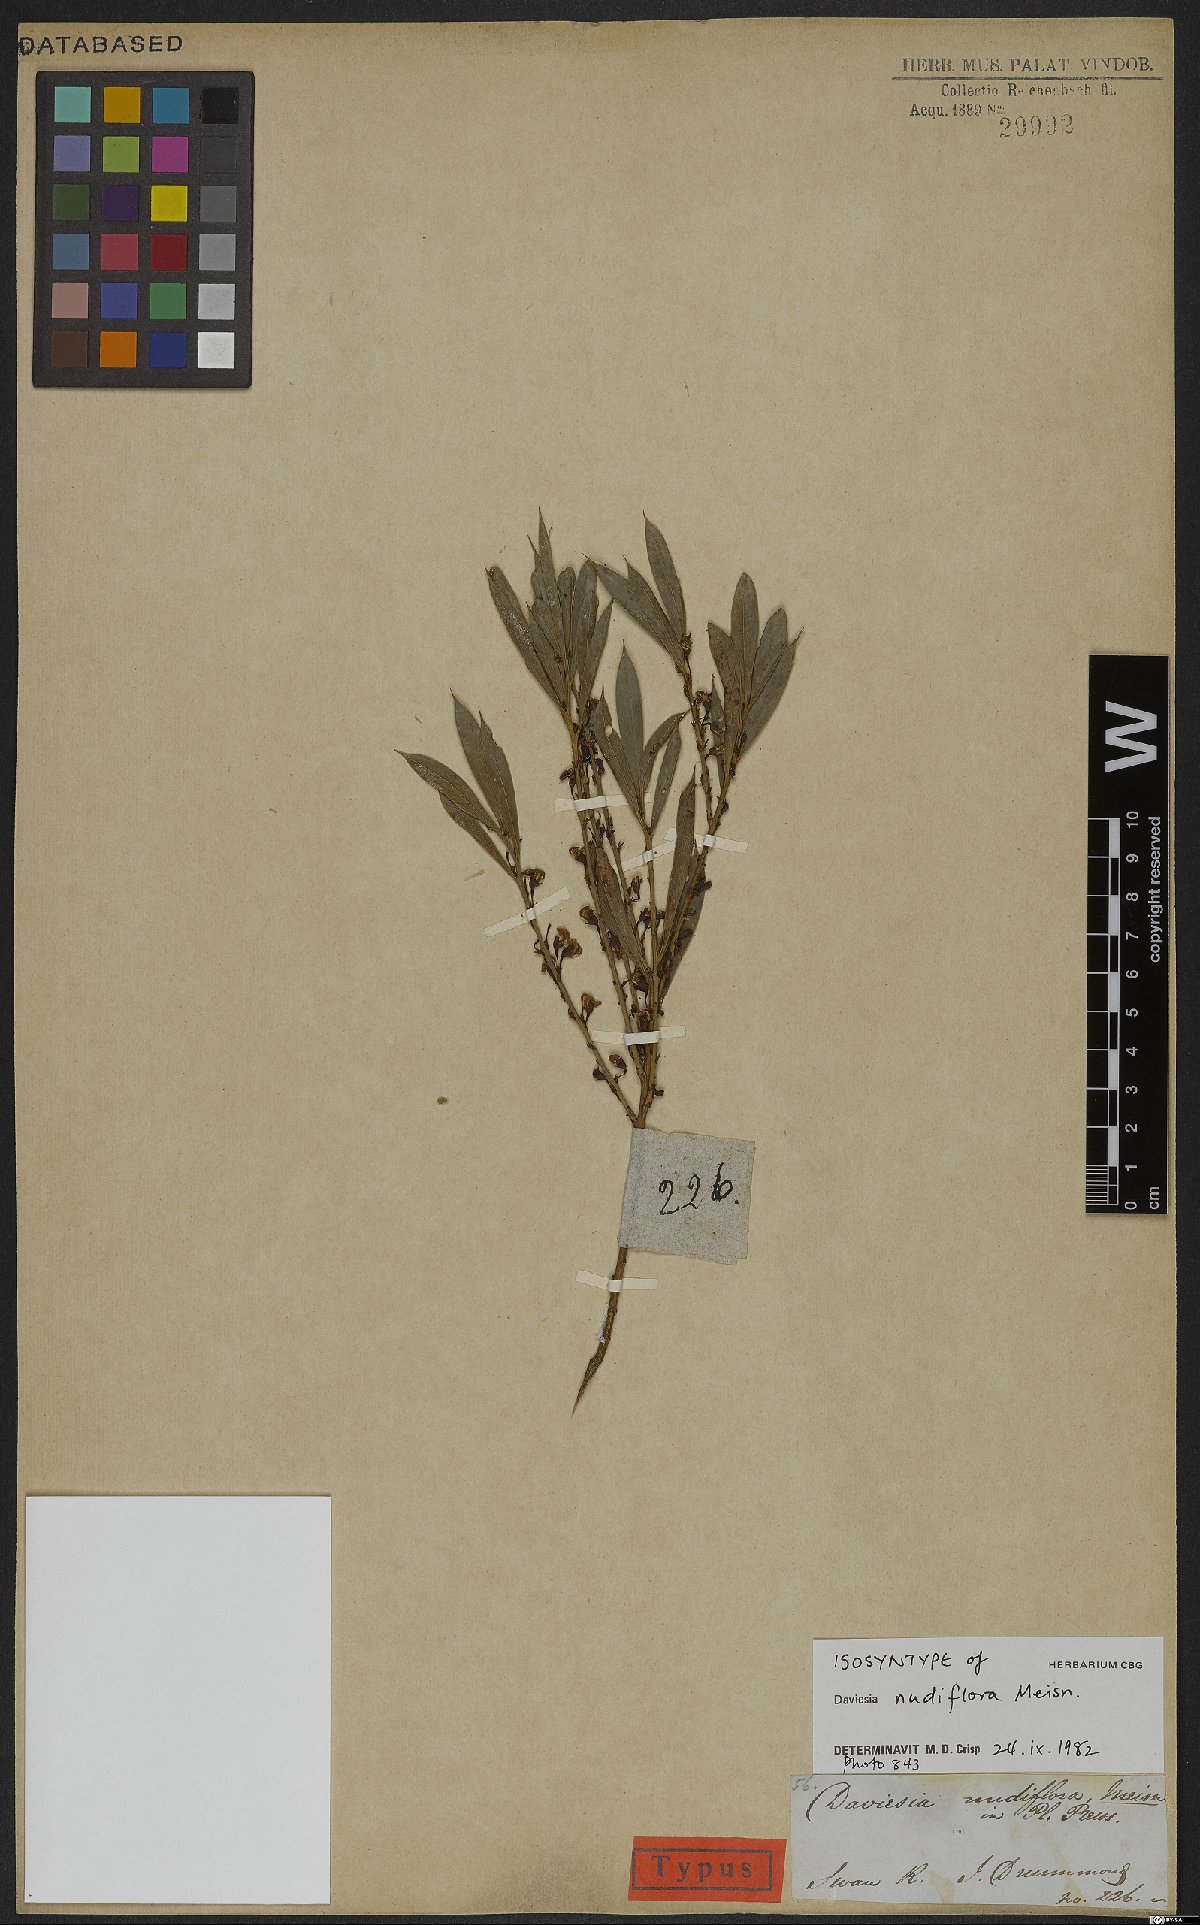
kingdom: Plantae
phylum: Tracheophyta
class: Magnoliopsida
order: Fabales
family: Fabaceae
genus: Daviesia
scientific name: Daviesia nudiflora
